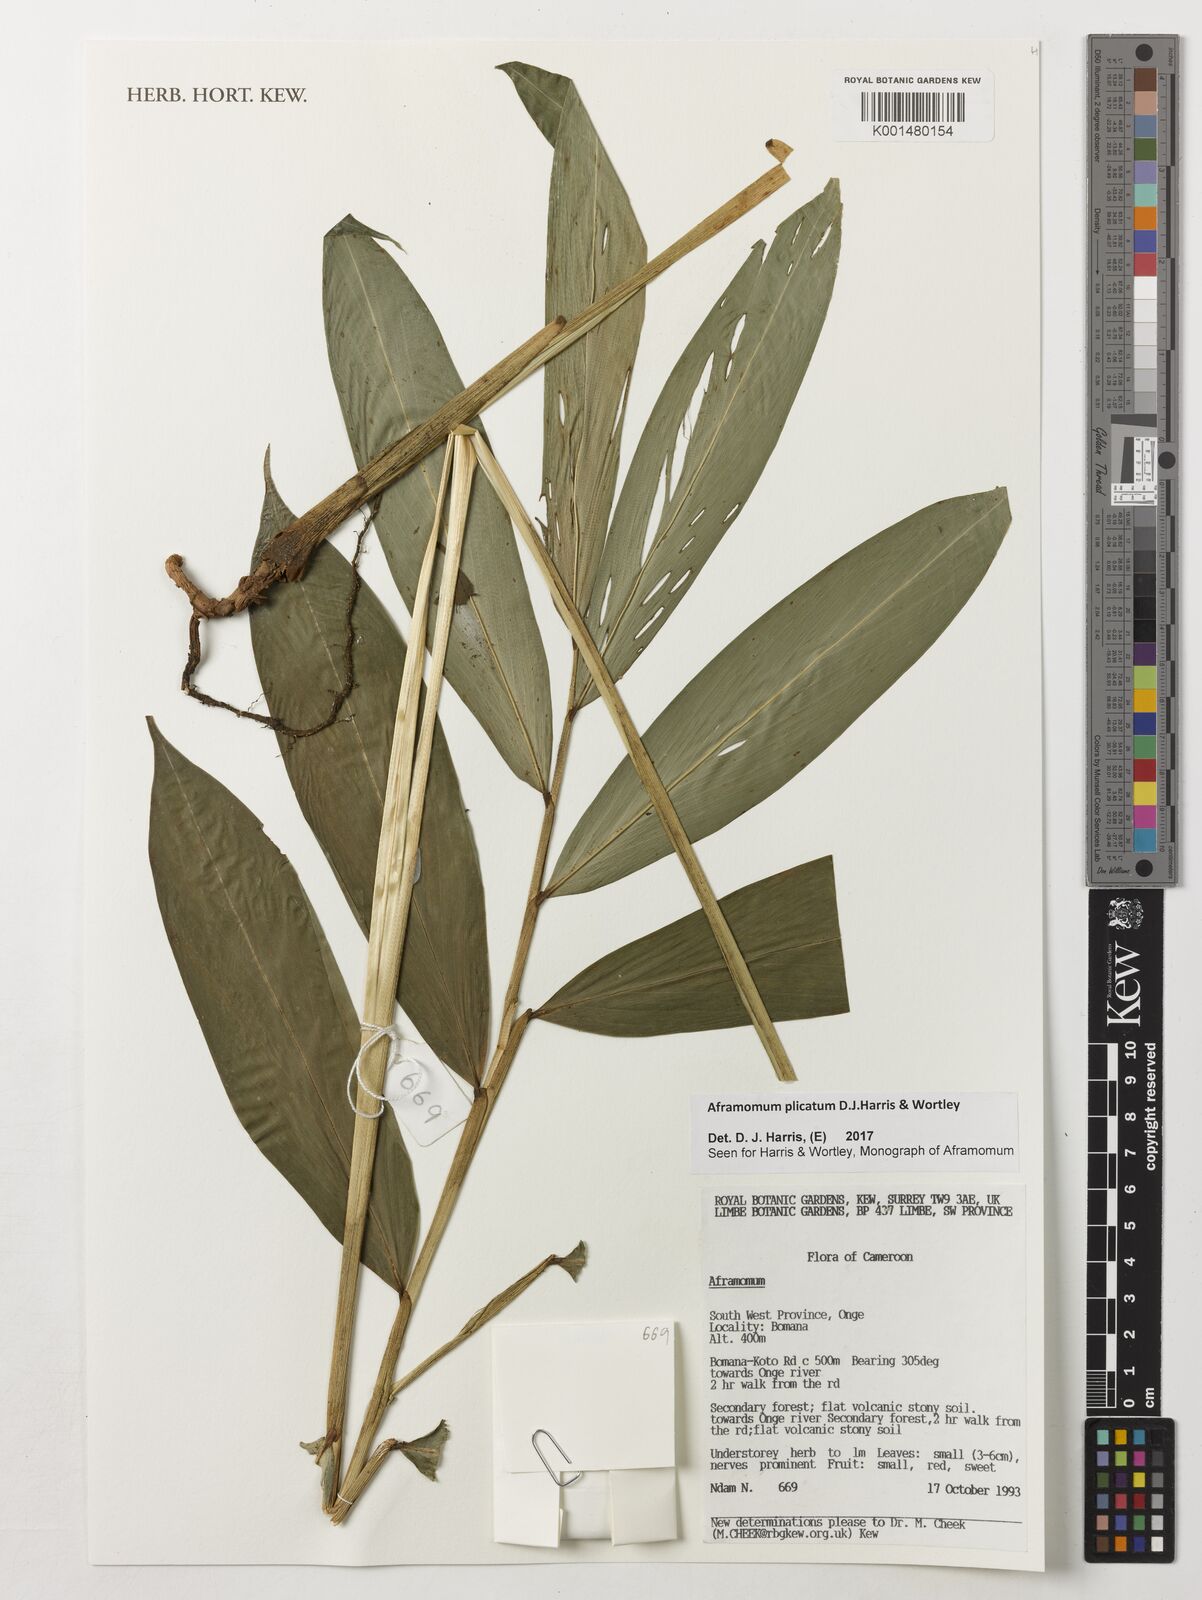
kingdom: Plantae
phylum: Tracheophyta
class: Liliopsida
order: Zingiberales
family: Zingiberaceae
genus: Aframomum
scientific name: Aframomum plicatum
